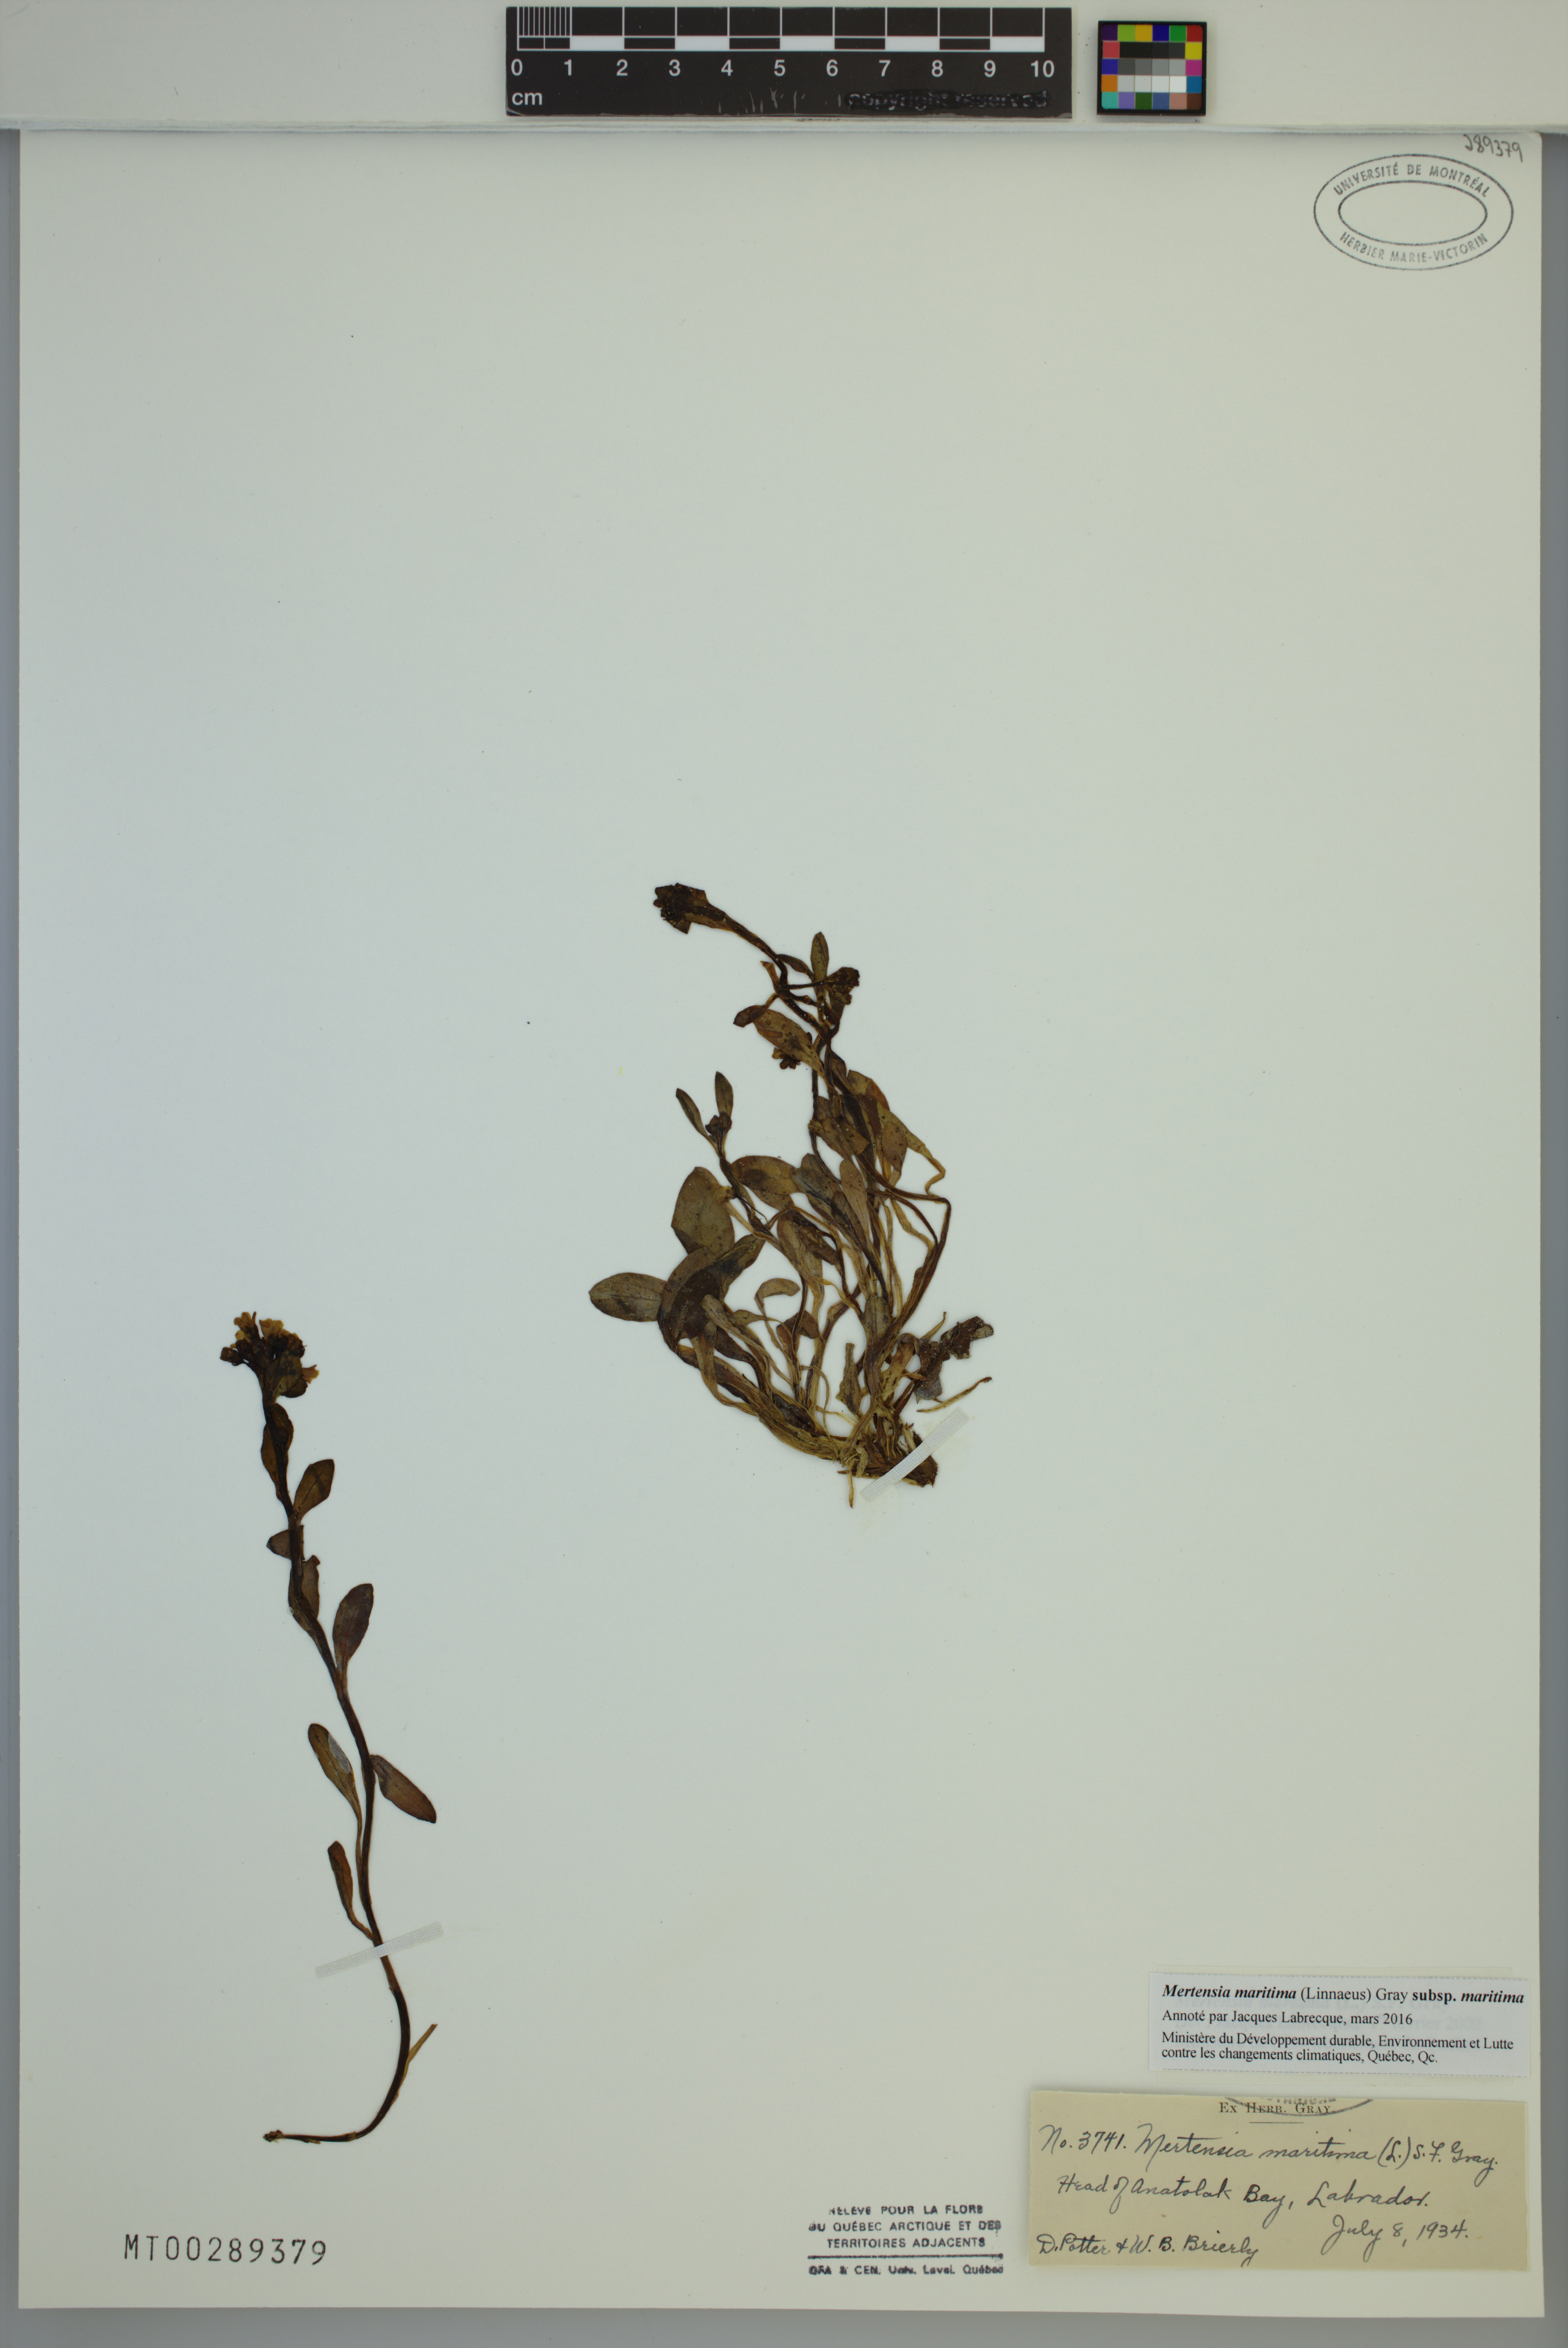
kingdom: Plantae
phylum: Tracheophyta
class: Magnoliopsida
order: Boraginales
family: Boraginaceae
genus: Mertensia
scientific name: Mertensia maritima
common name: Oysterplant
